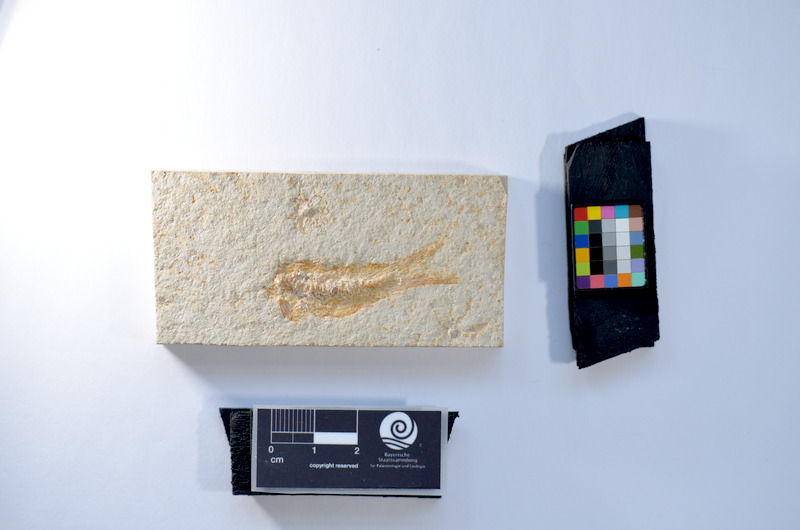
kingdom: Animalia
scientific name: Animalia
